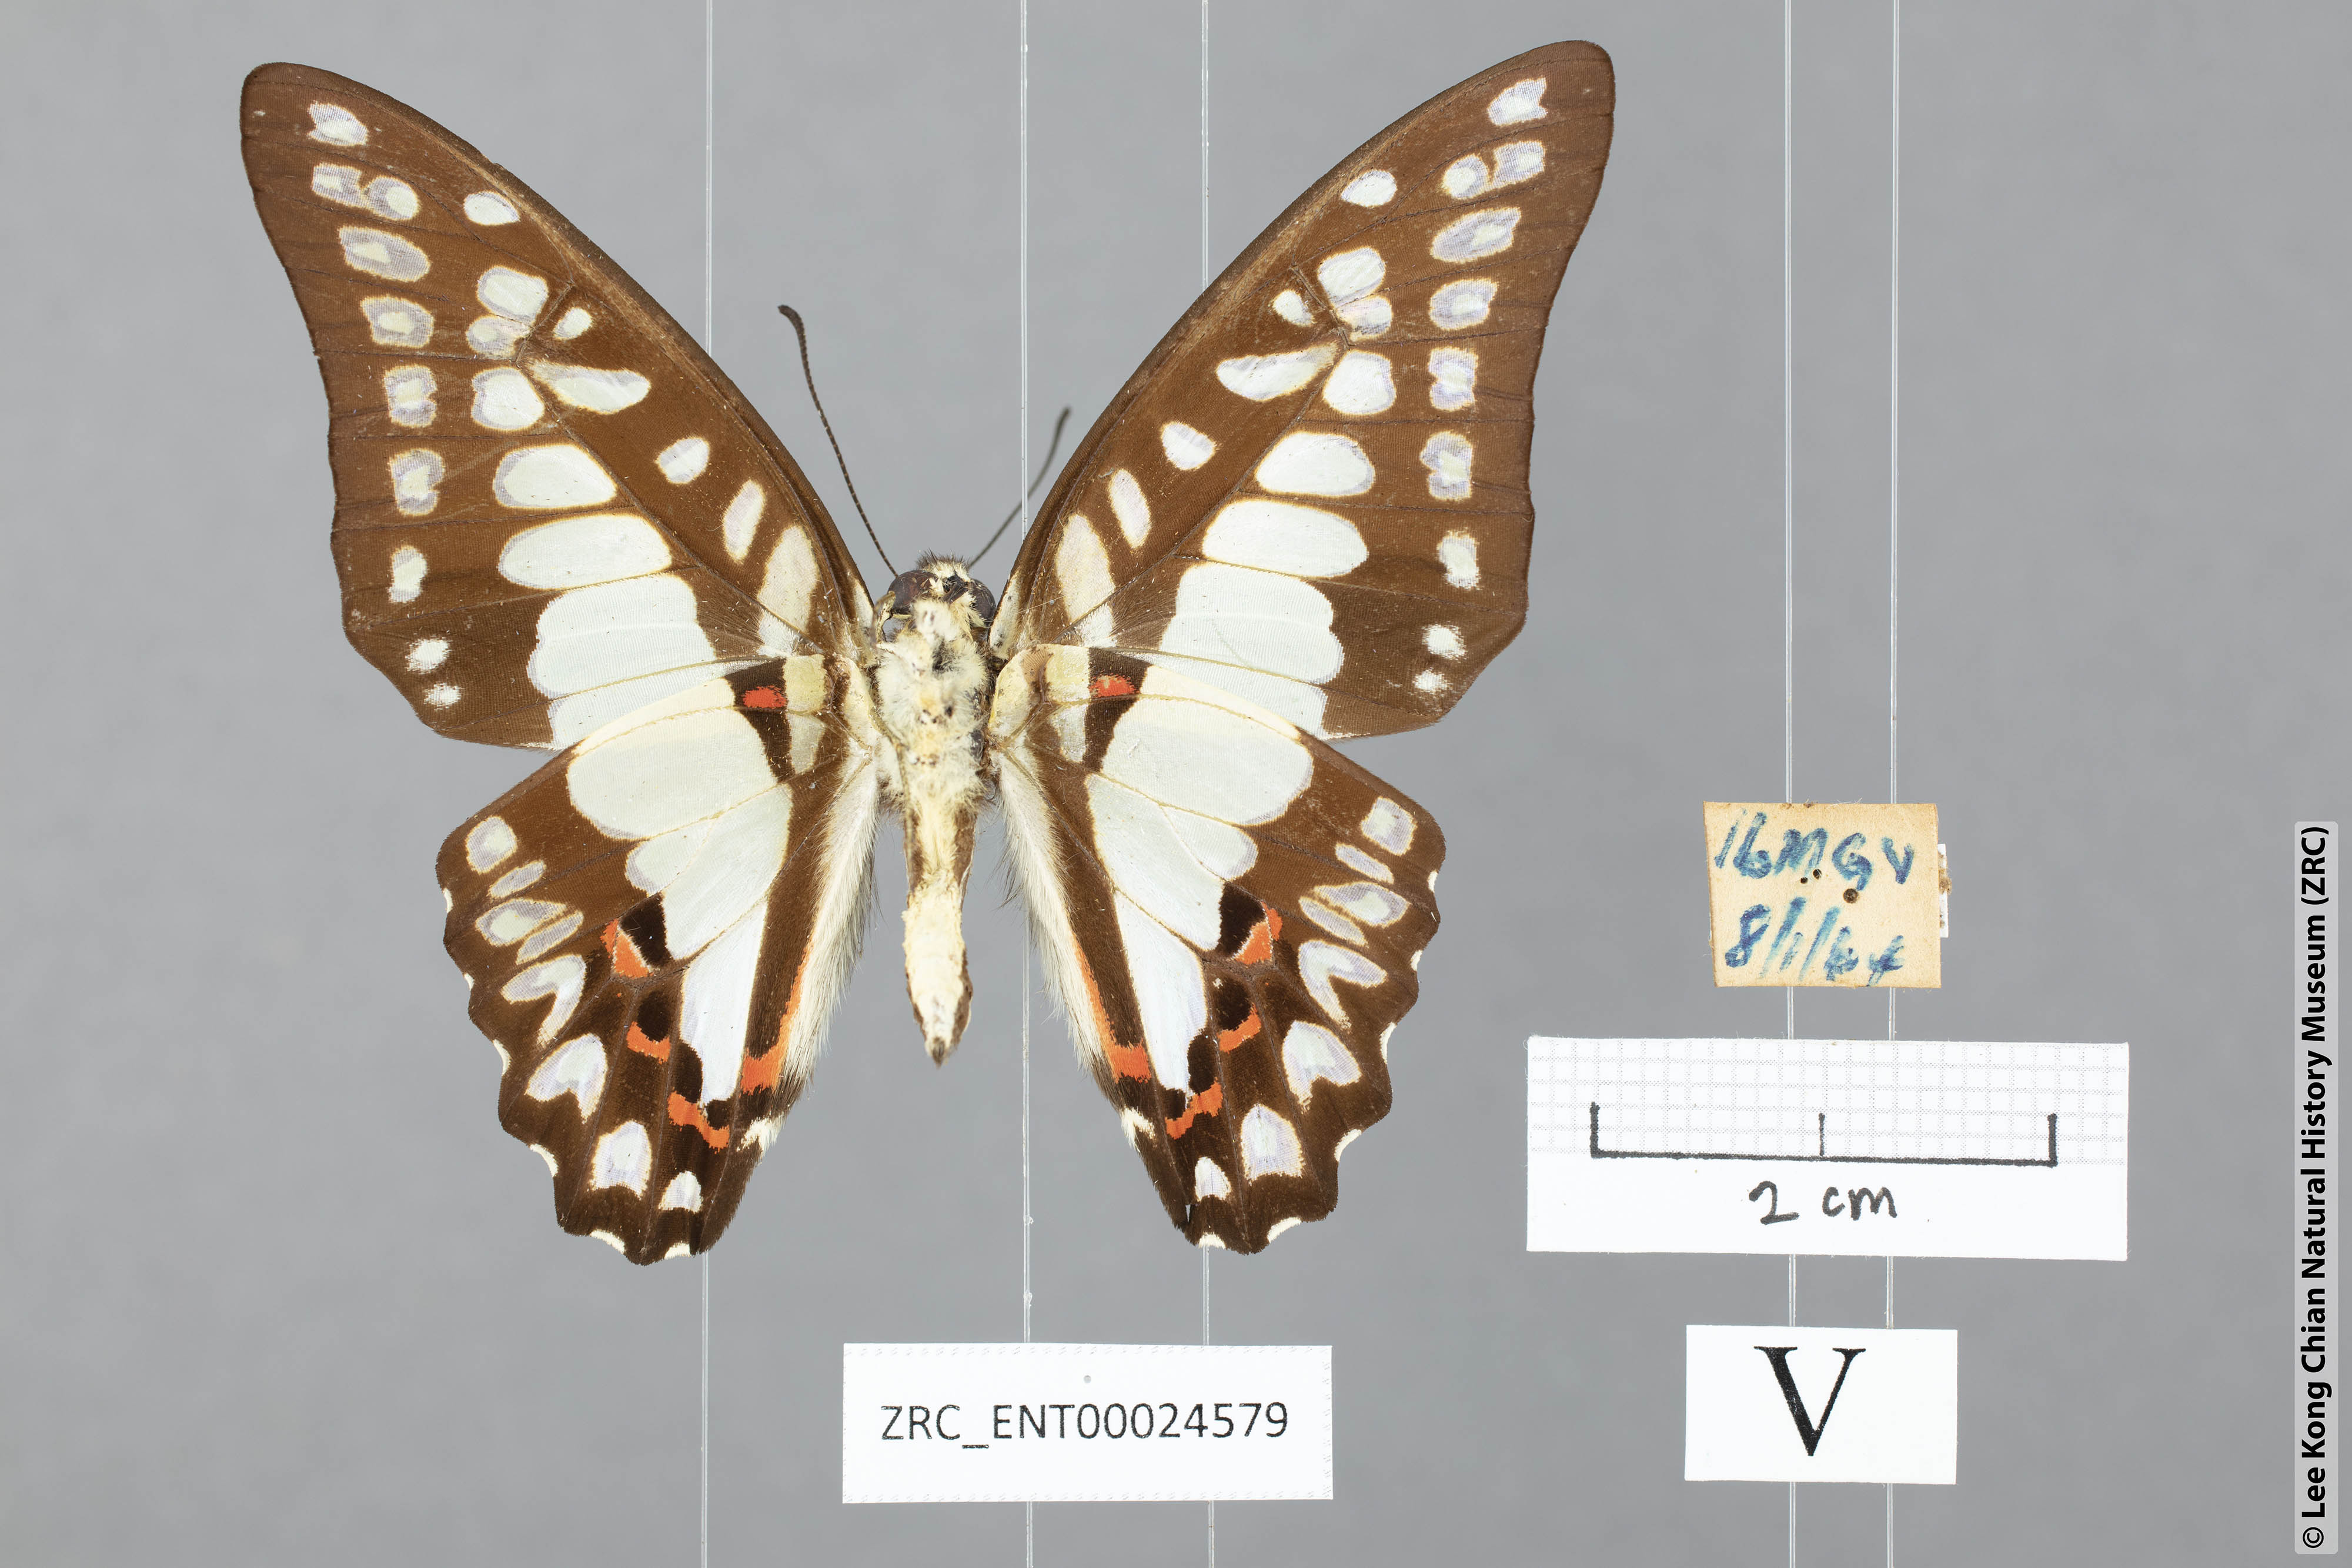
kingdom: Animalia
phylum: Arthropoda
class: Insecta
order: Lepidoptera
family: Papilionidae
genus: Graphium
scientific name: Graphium eurypylus
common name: Great jay
